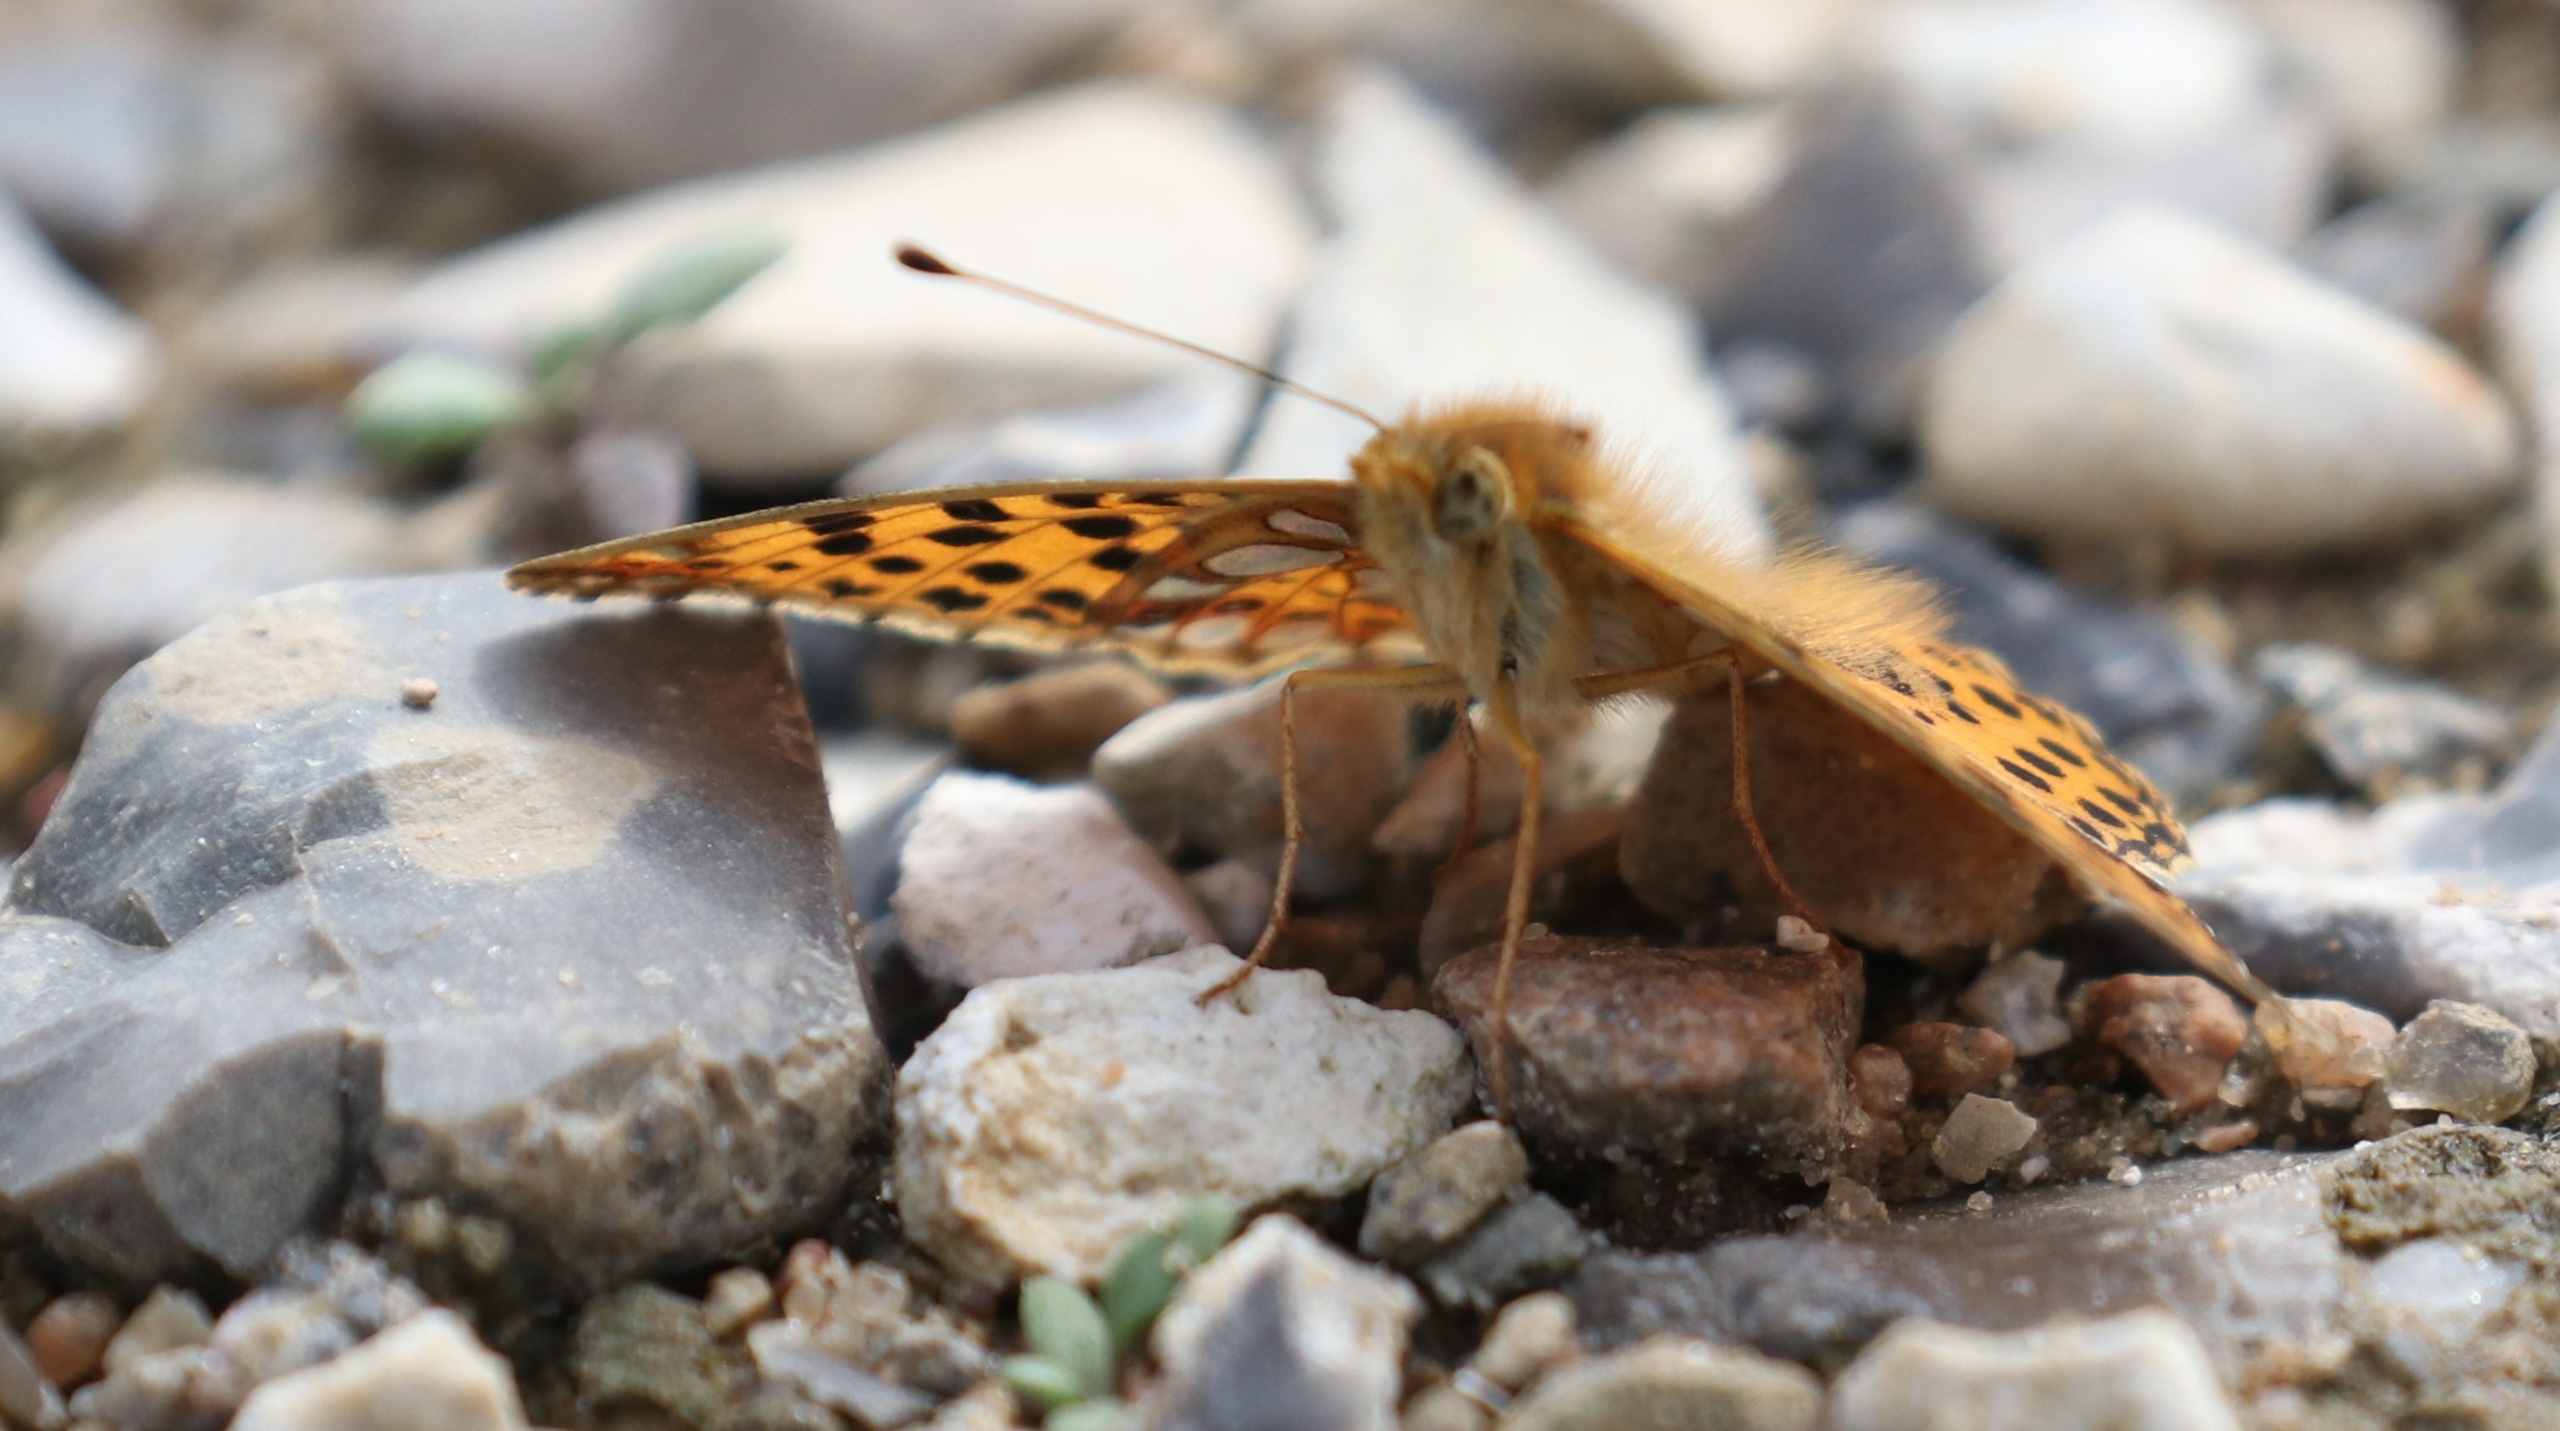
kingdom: Animalia
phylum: Arthropoda
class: Insecta
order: Lepidoptera
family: Nymphalidae
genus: Issoria
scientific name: Issoria lathonia
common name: Storplettet perlemorsommerfugl
